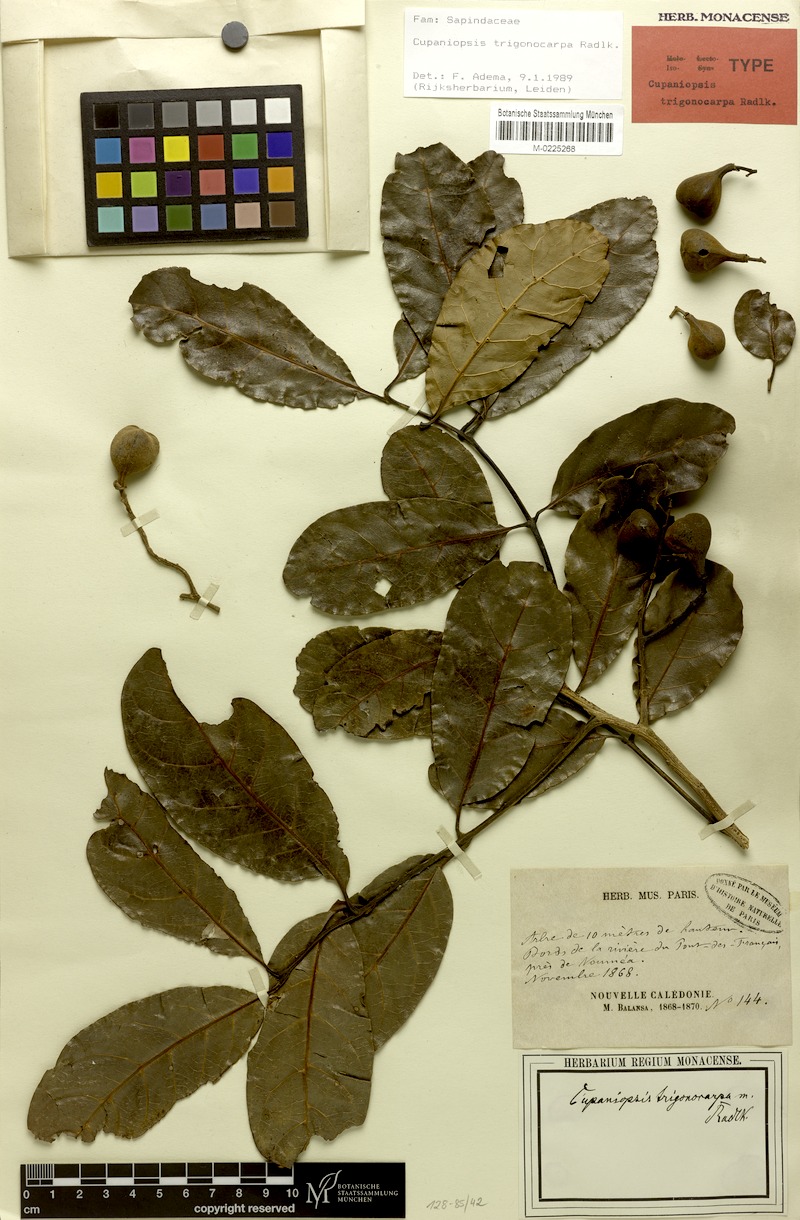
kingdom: Plantae
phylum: Tracheophyta
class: Magnoliopsida
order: Sapindales
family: Sapindaceae
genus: Cupaniopsis
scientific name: Cupaniopsis trigonocarpa
